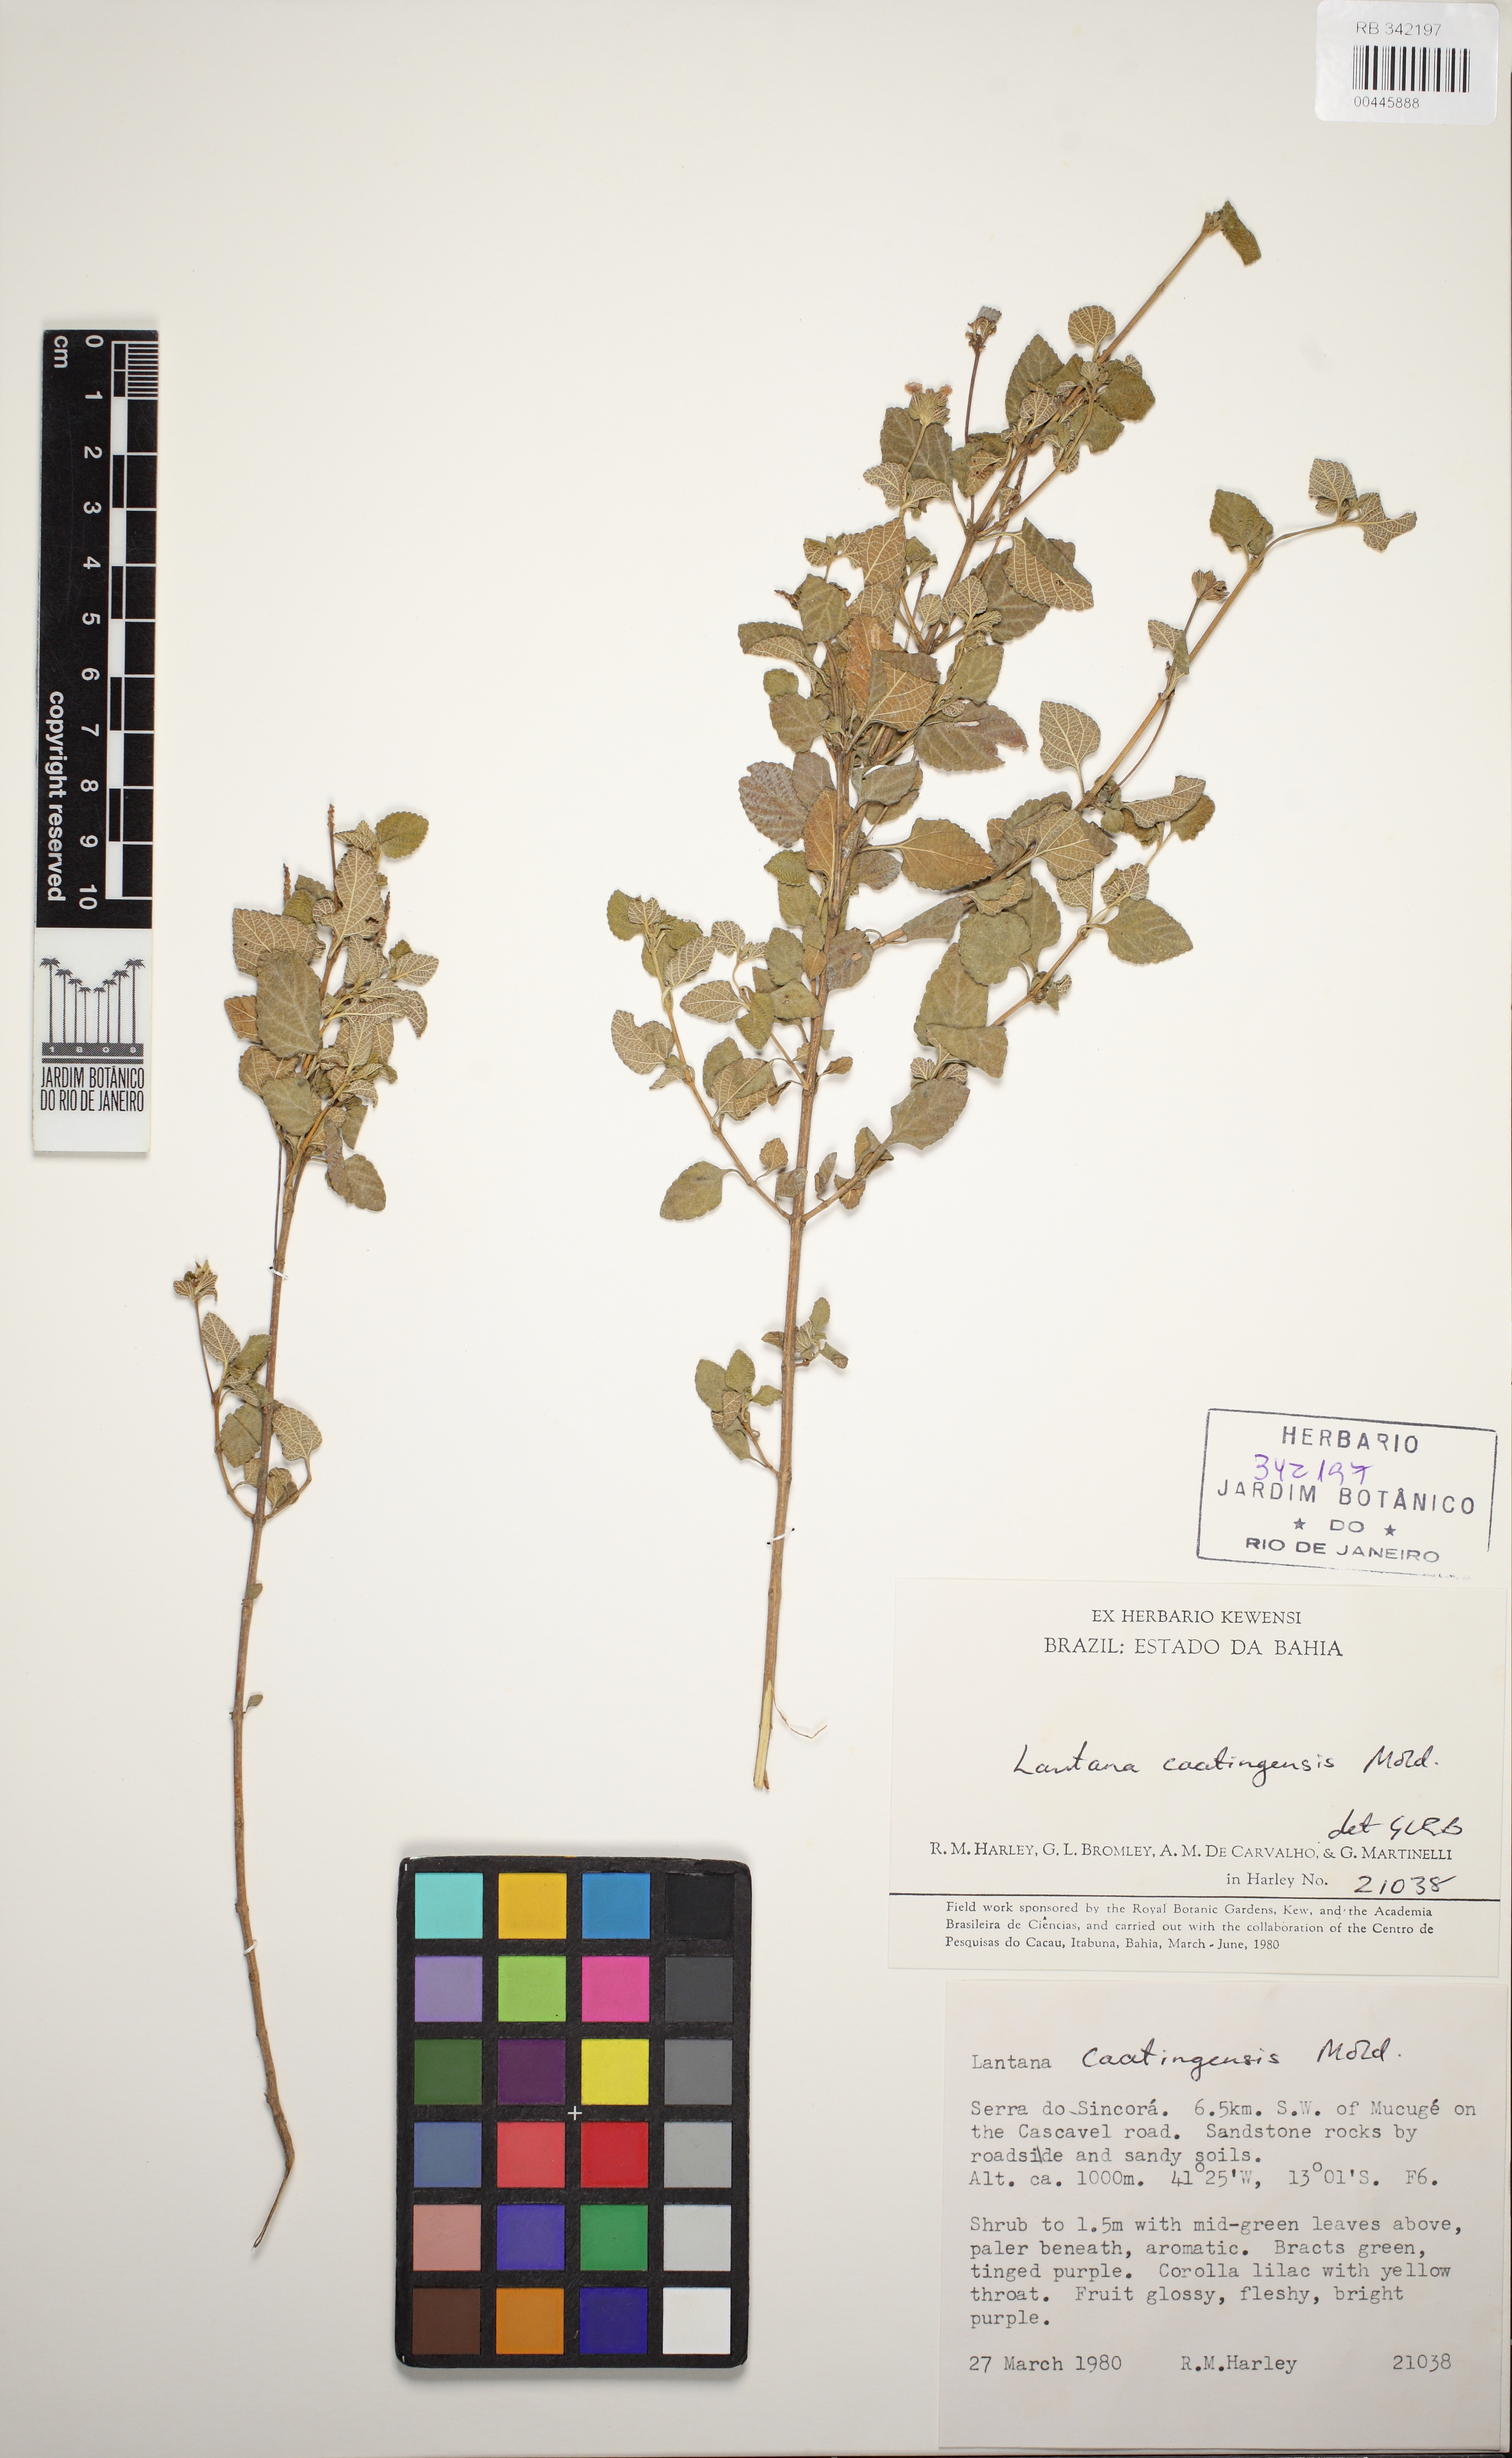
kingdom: Plantae
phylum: Tracheophyta
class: Magnoliopsida
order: Lamiales
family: Verbenaceae
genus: Lantana
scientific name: Lantana caatingensis
